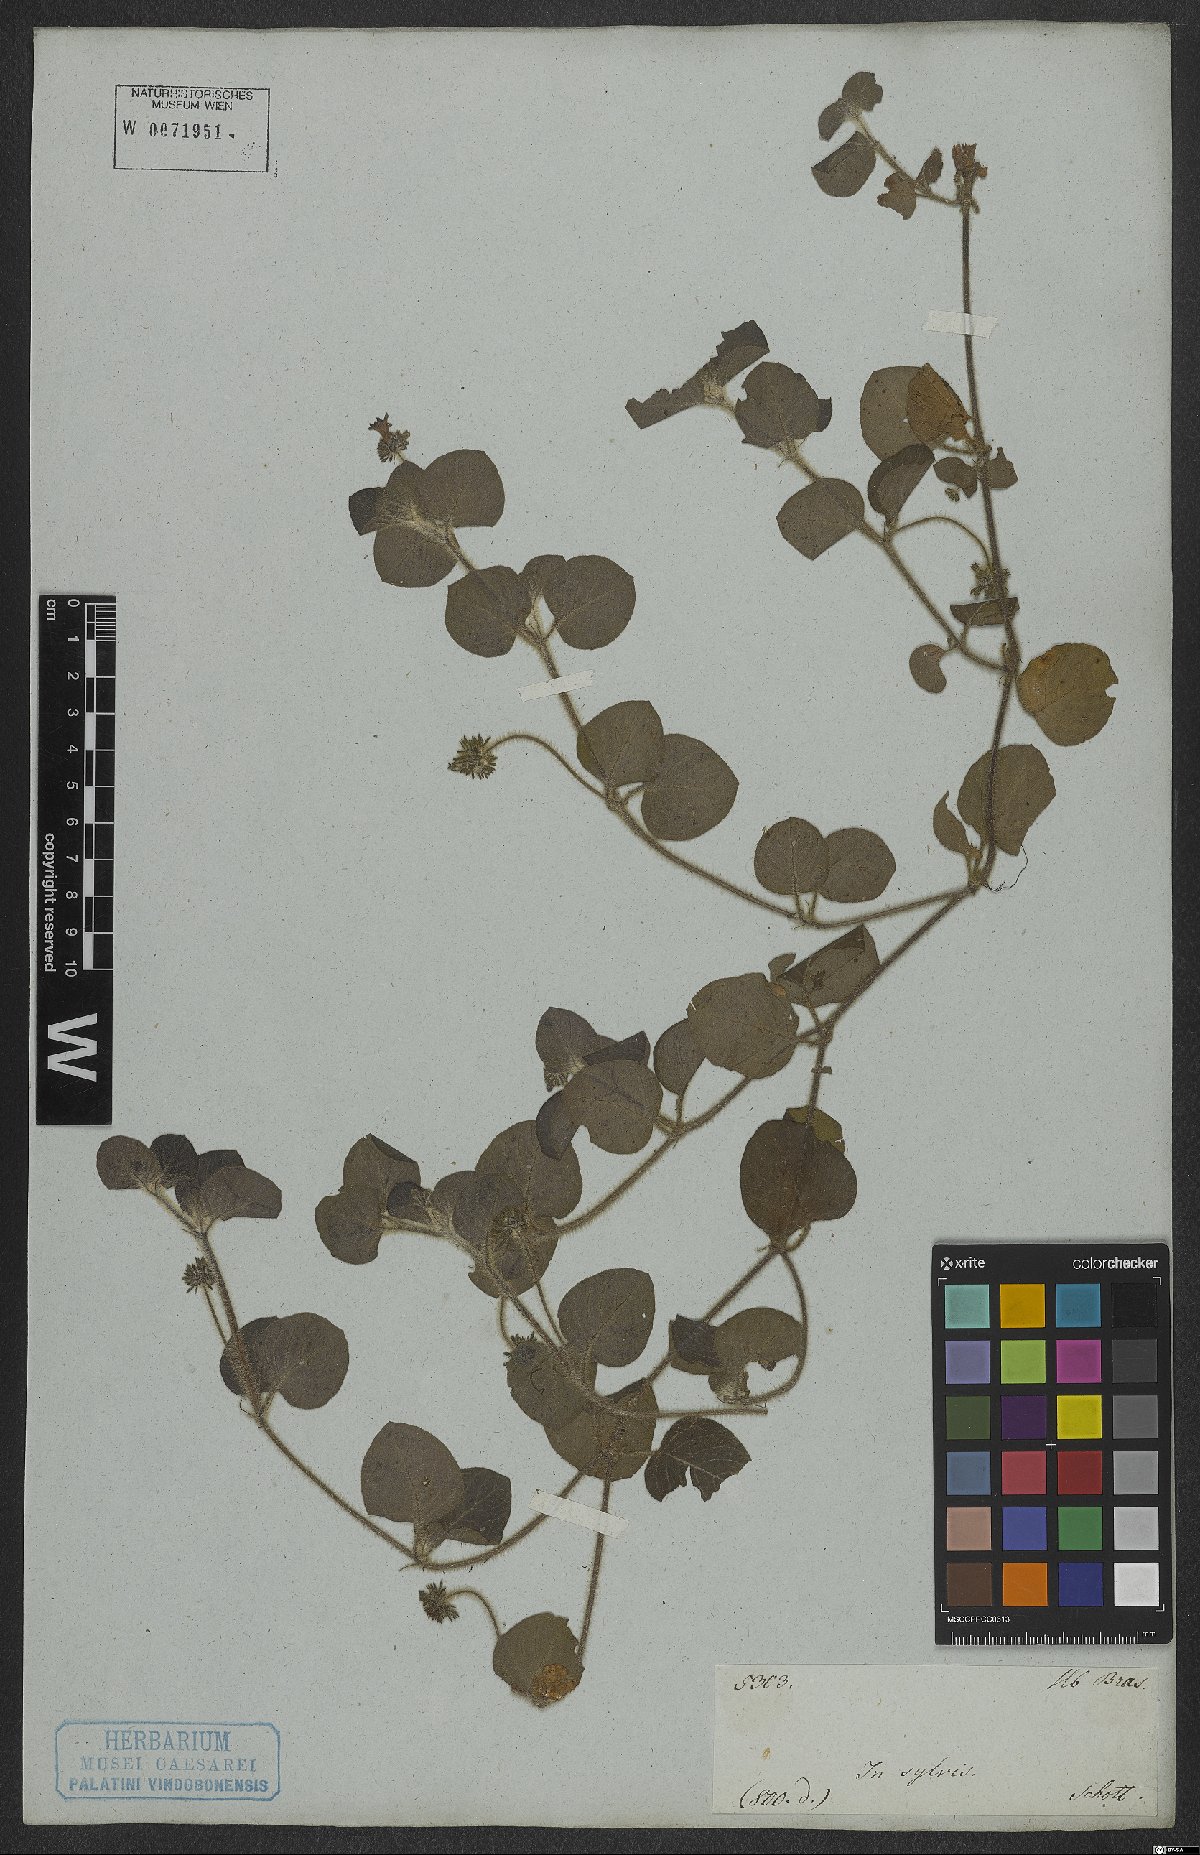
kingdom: Plantae
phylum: Tracheophyta
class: Magnoliopsida
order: Gentianales
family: Rubiaceae
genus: Coccocypselum
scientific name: Coccocypselum
